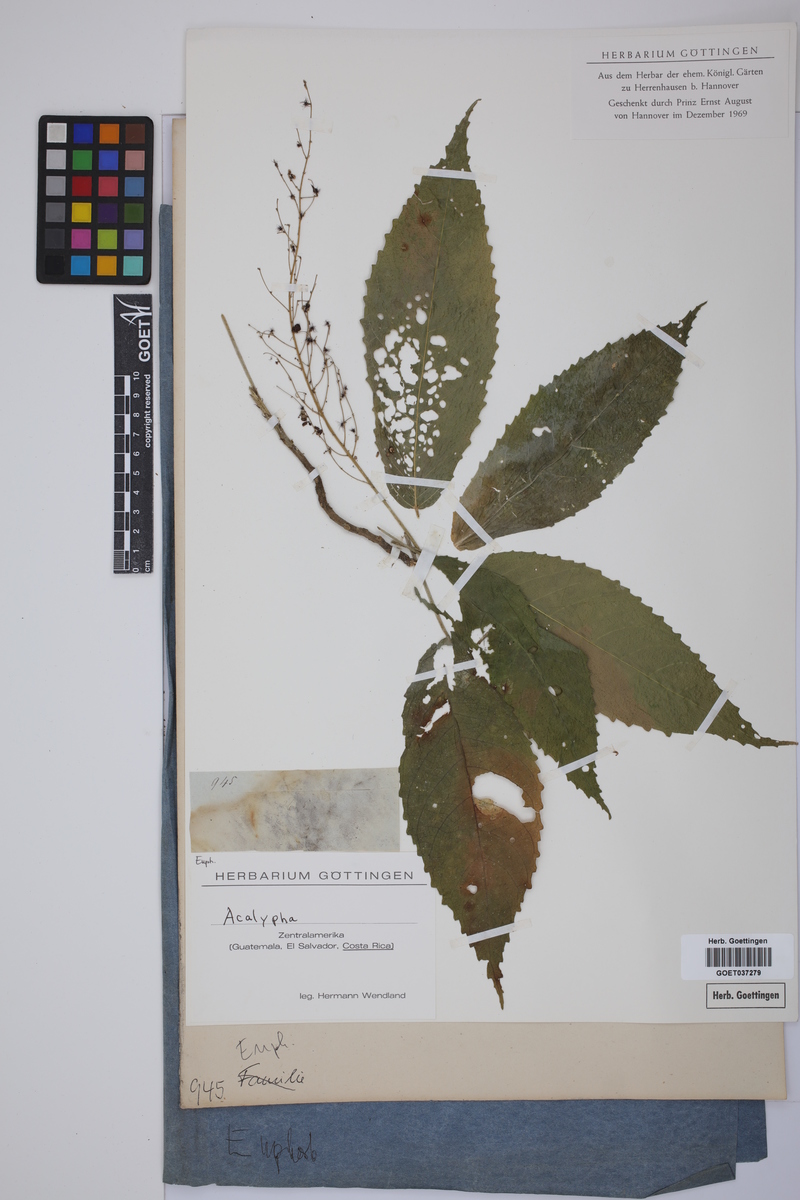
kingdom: Plantae
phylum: Tracheophyta
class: Magnoliopsida
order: Malpighiales
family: Euphorbiaceae
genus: Acalypha
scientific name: Acalypha
